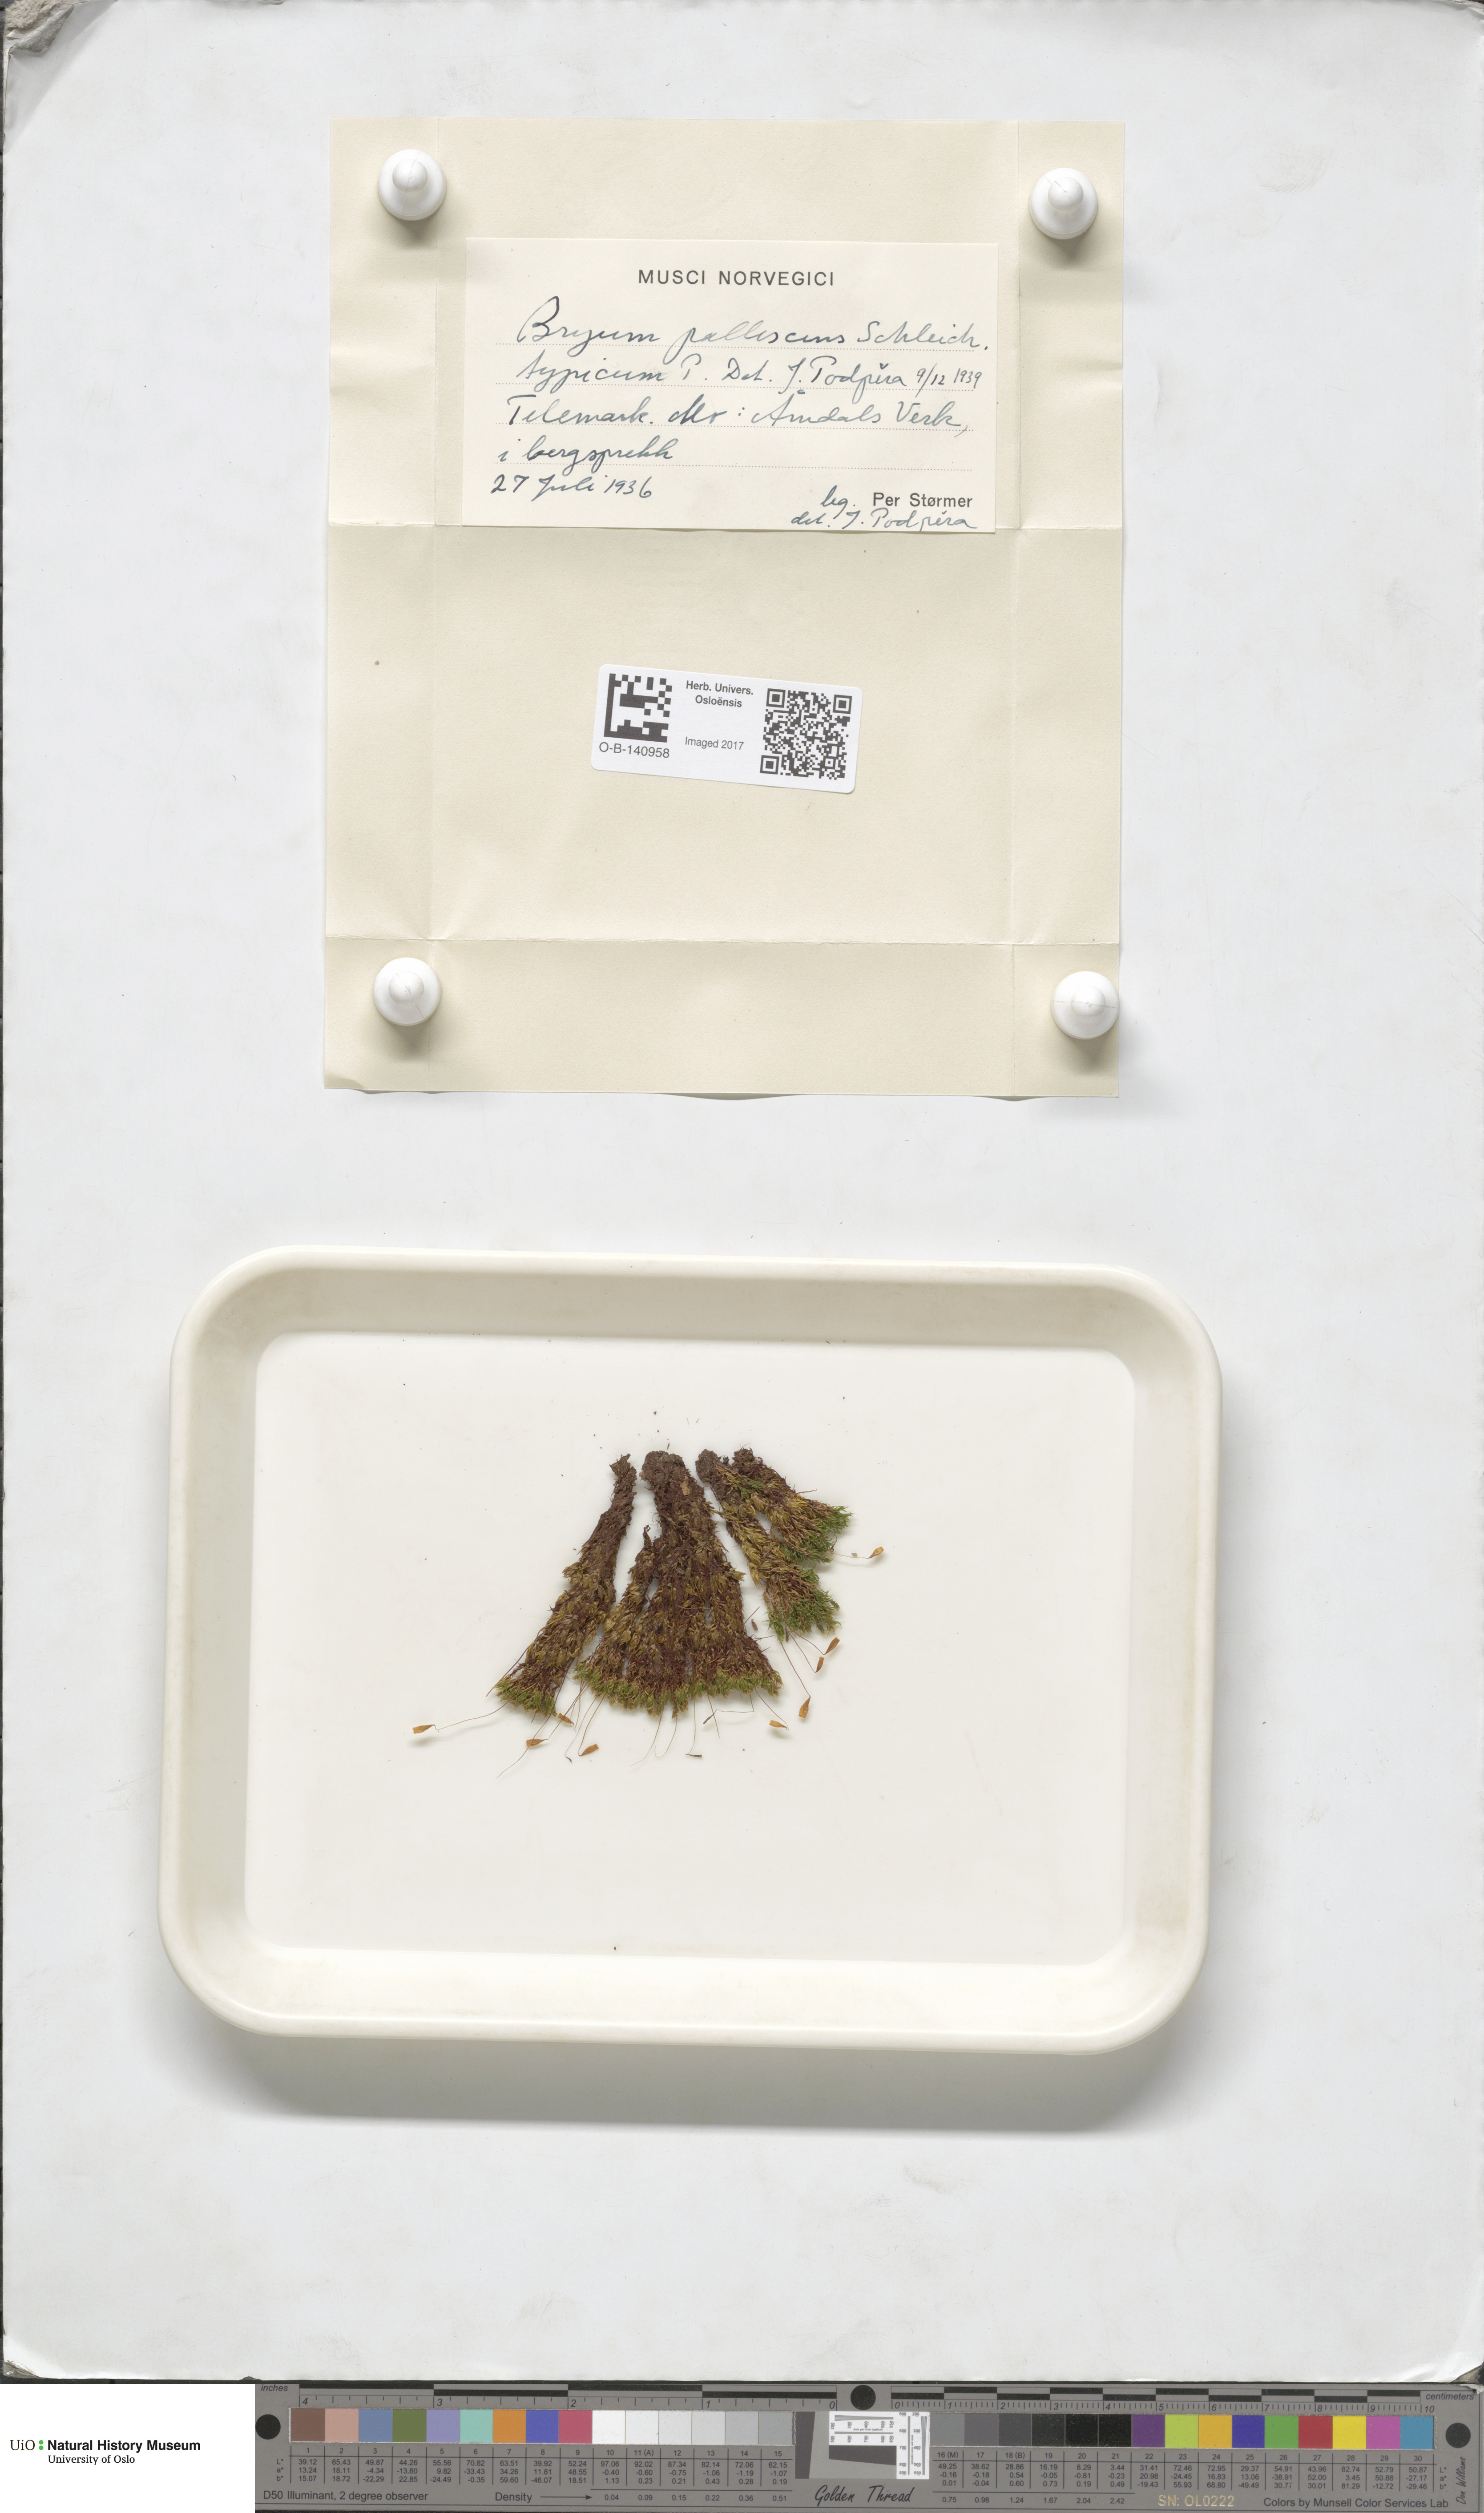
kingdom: Plantae
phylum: Bryophyta
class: Bryopsida
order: Bryales
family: Bryaceae
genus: Ptychostomum
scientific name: Ptychostomum pallescens
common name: Tall-clustered thread-moss
